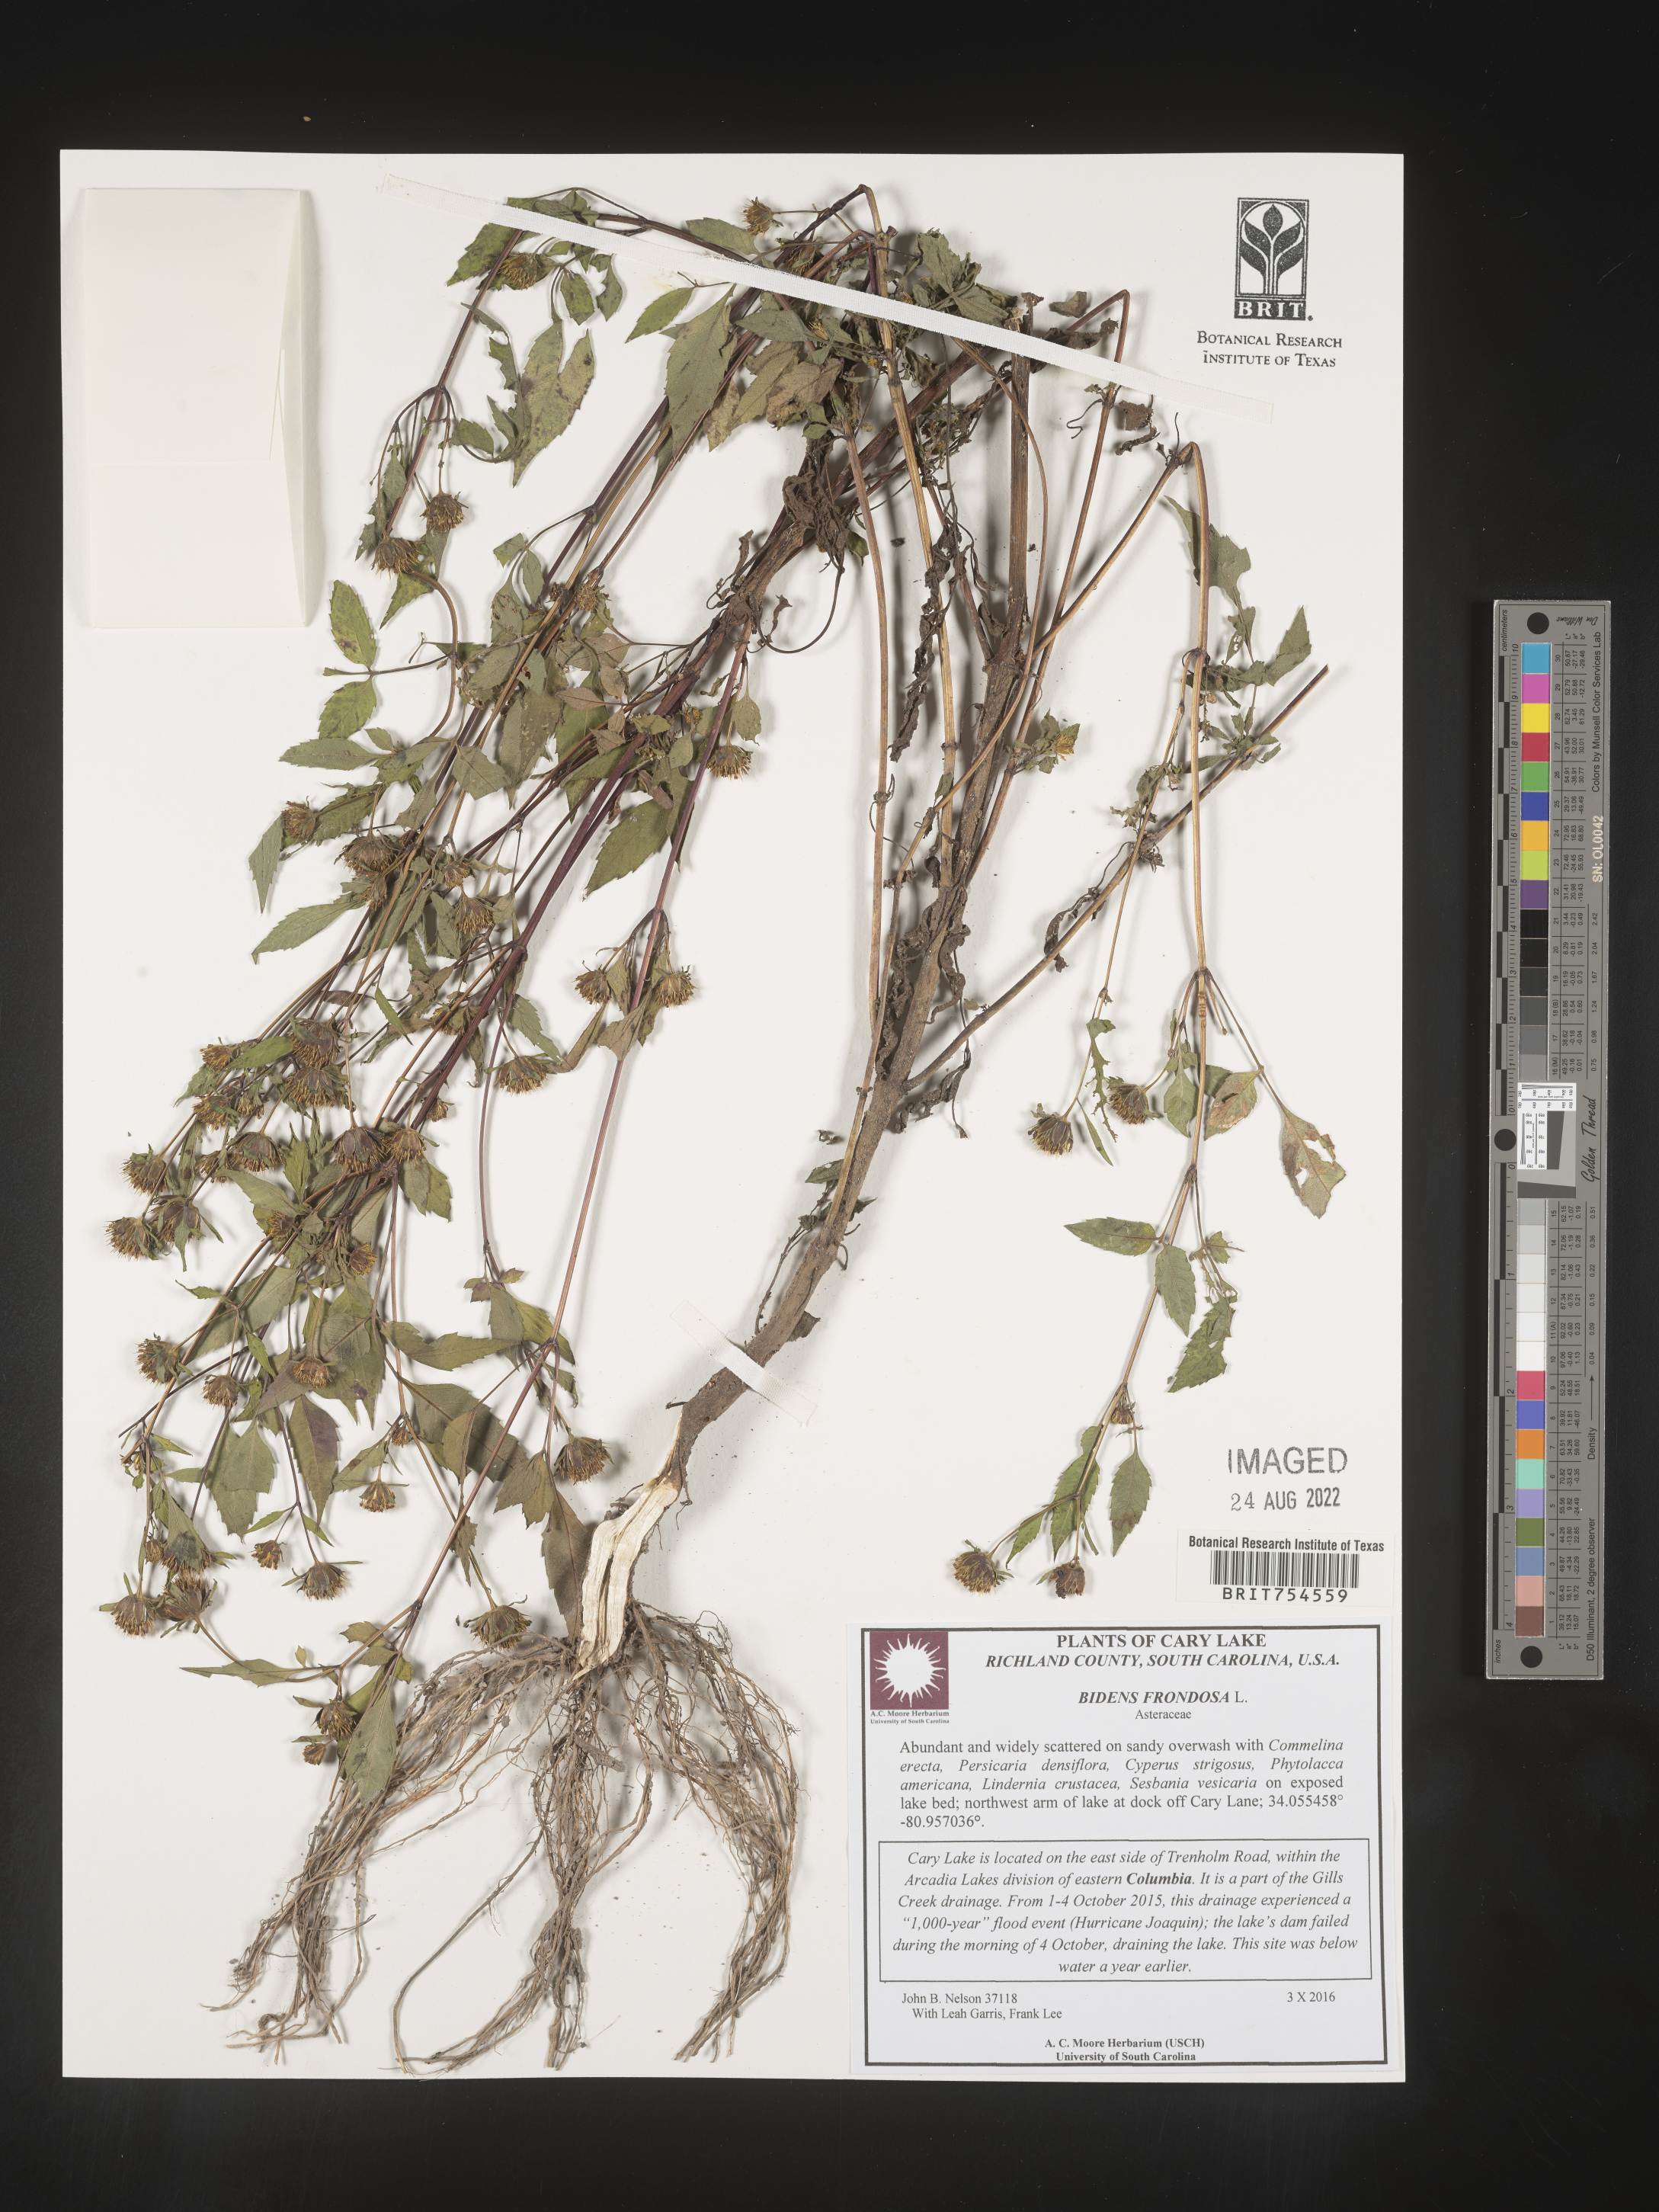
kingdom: Plantae
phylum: Tracheophyta
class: Magnoliopsida
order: Asterales
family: Asteraceae
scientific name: Asteraceae
